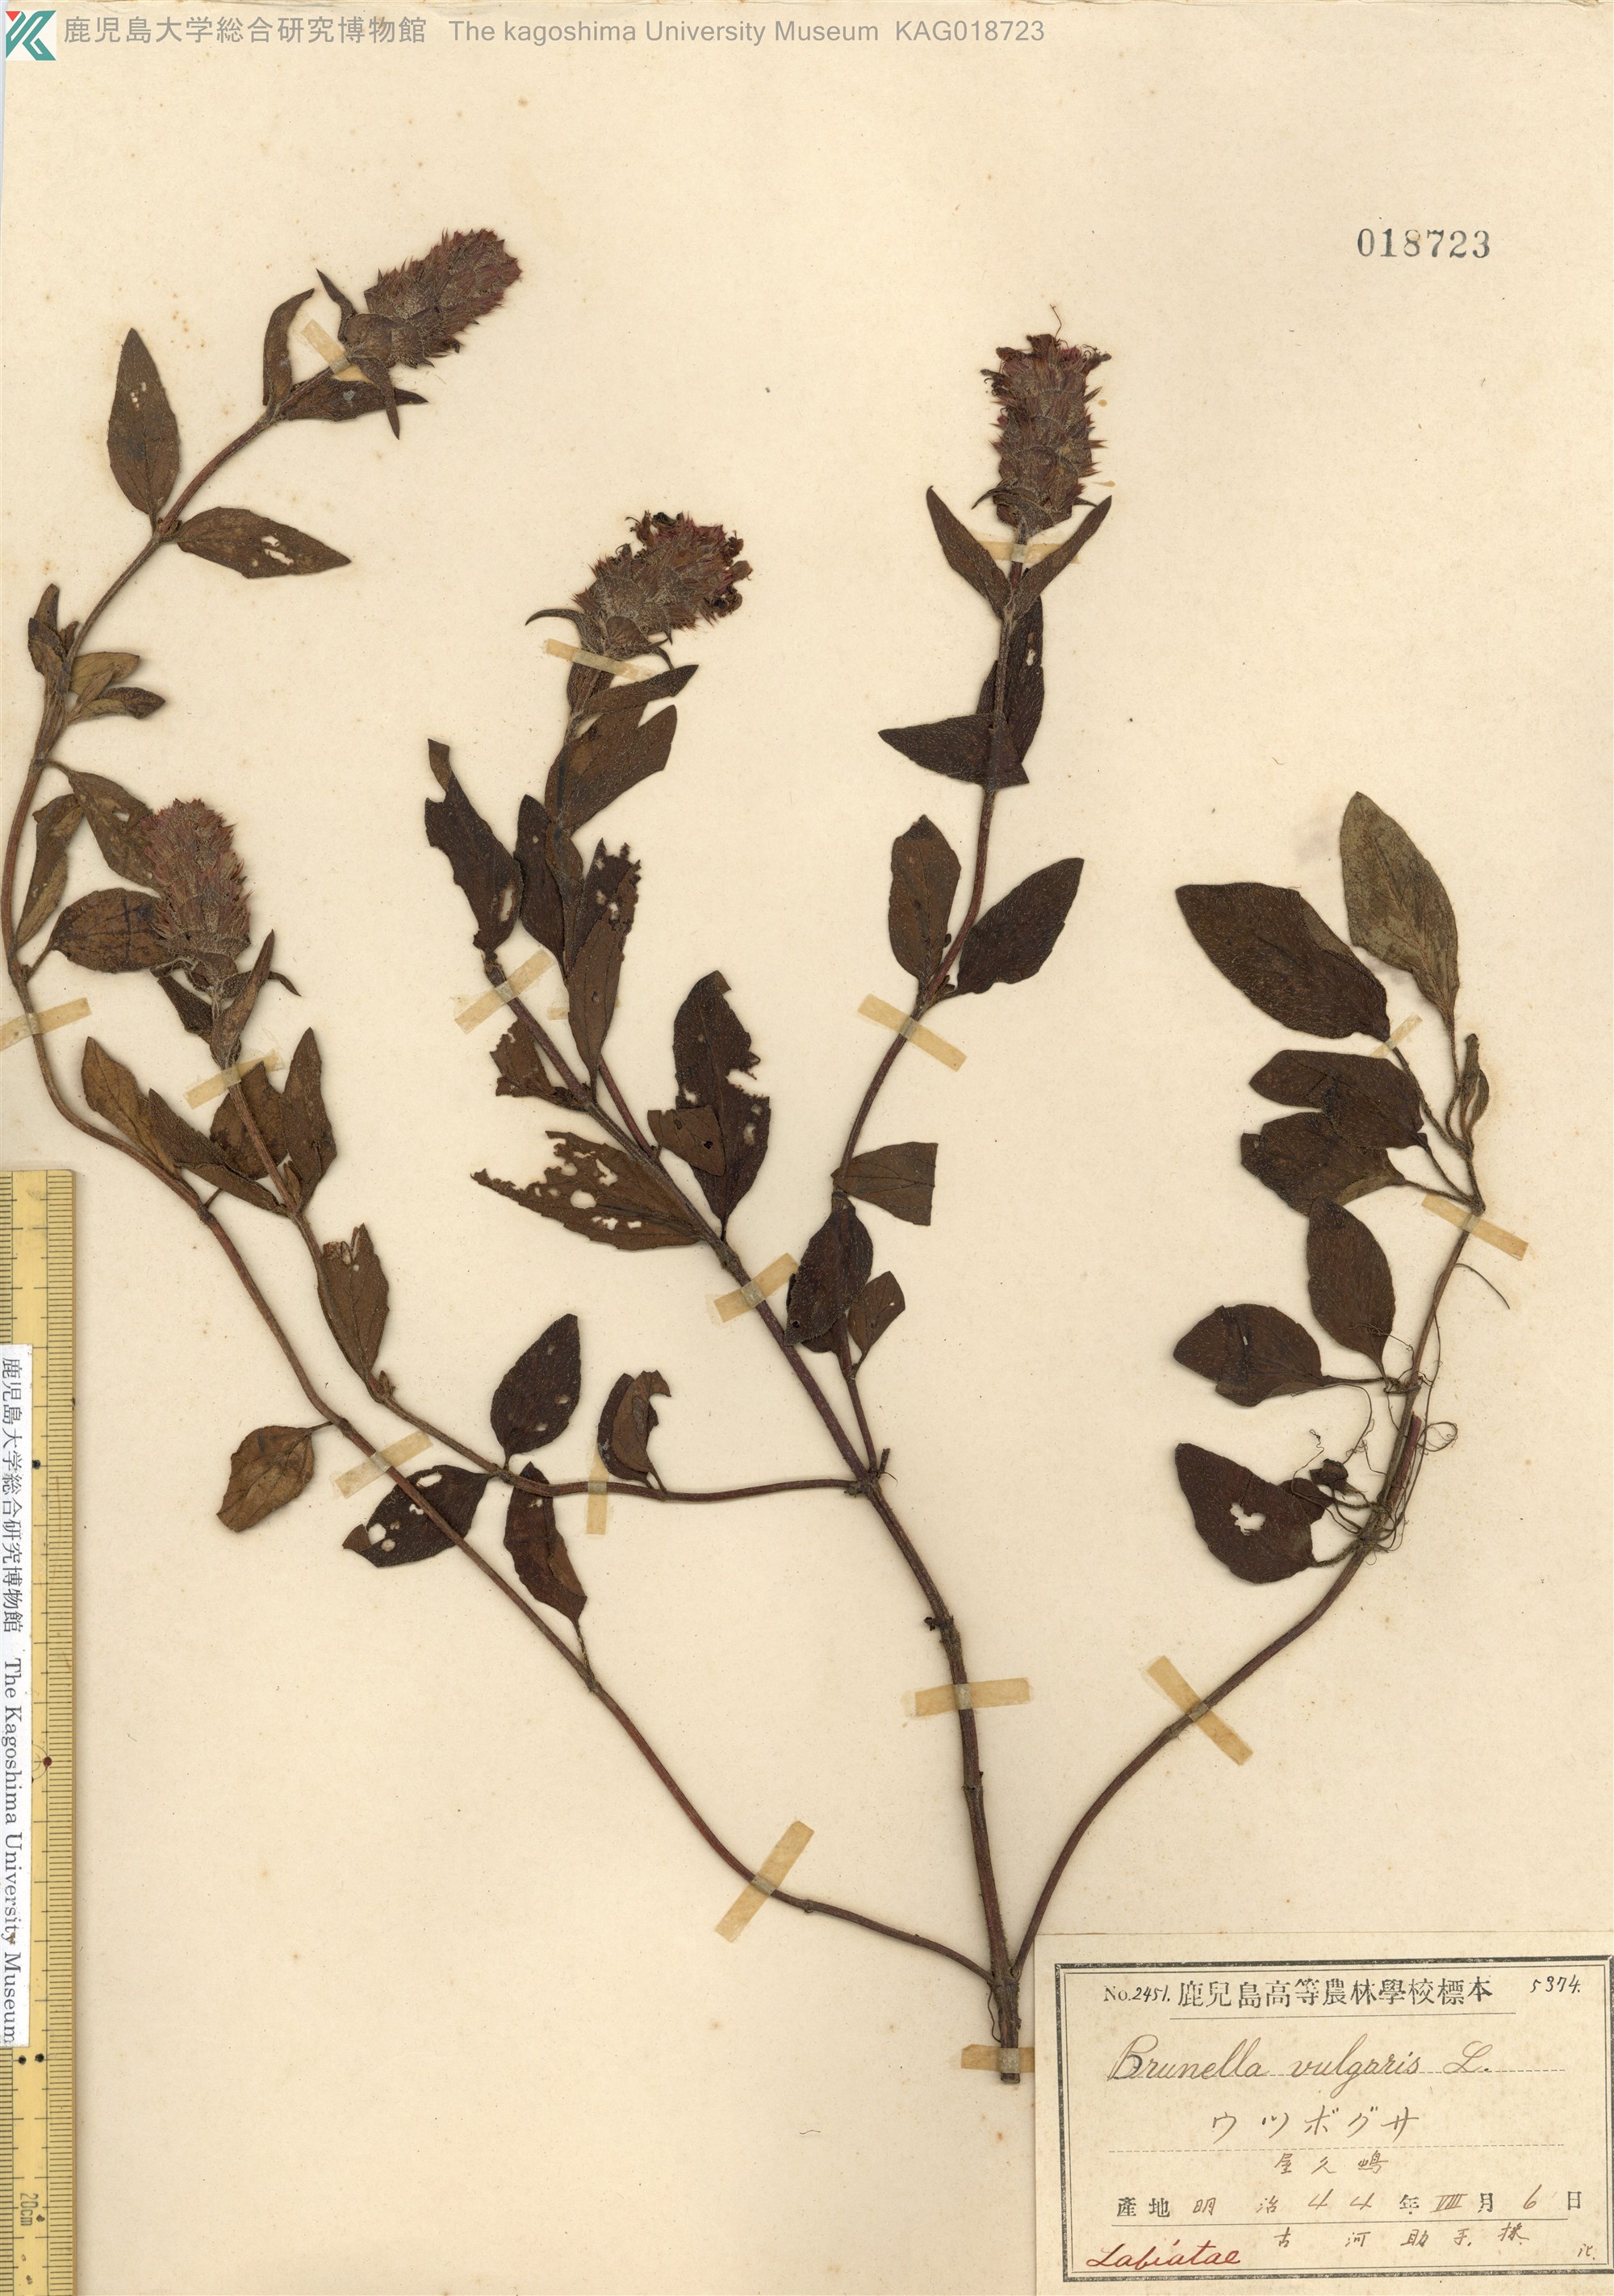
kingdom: Plantae
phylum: Tracheophyta
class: Magnoliopsida
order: Lamiales
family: Lamiaceae
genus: Prunella
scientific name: Prunella vulgaris
